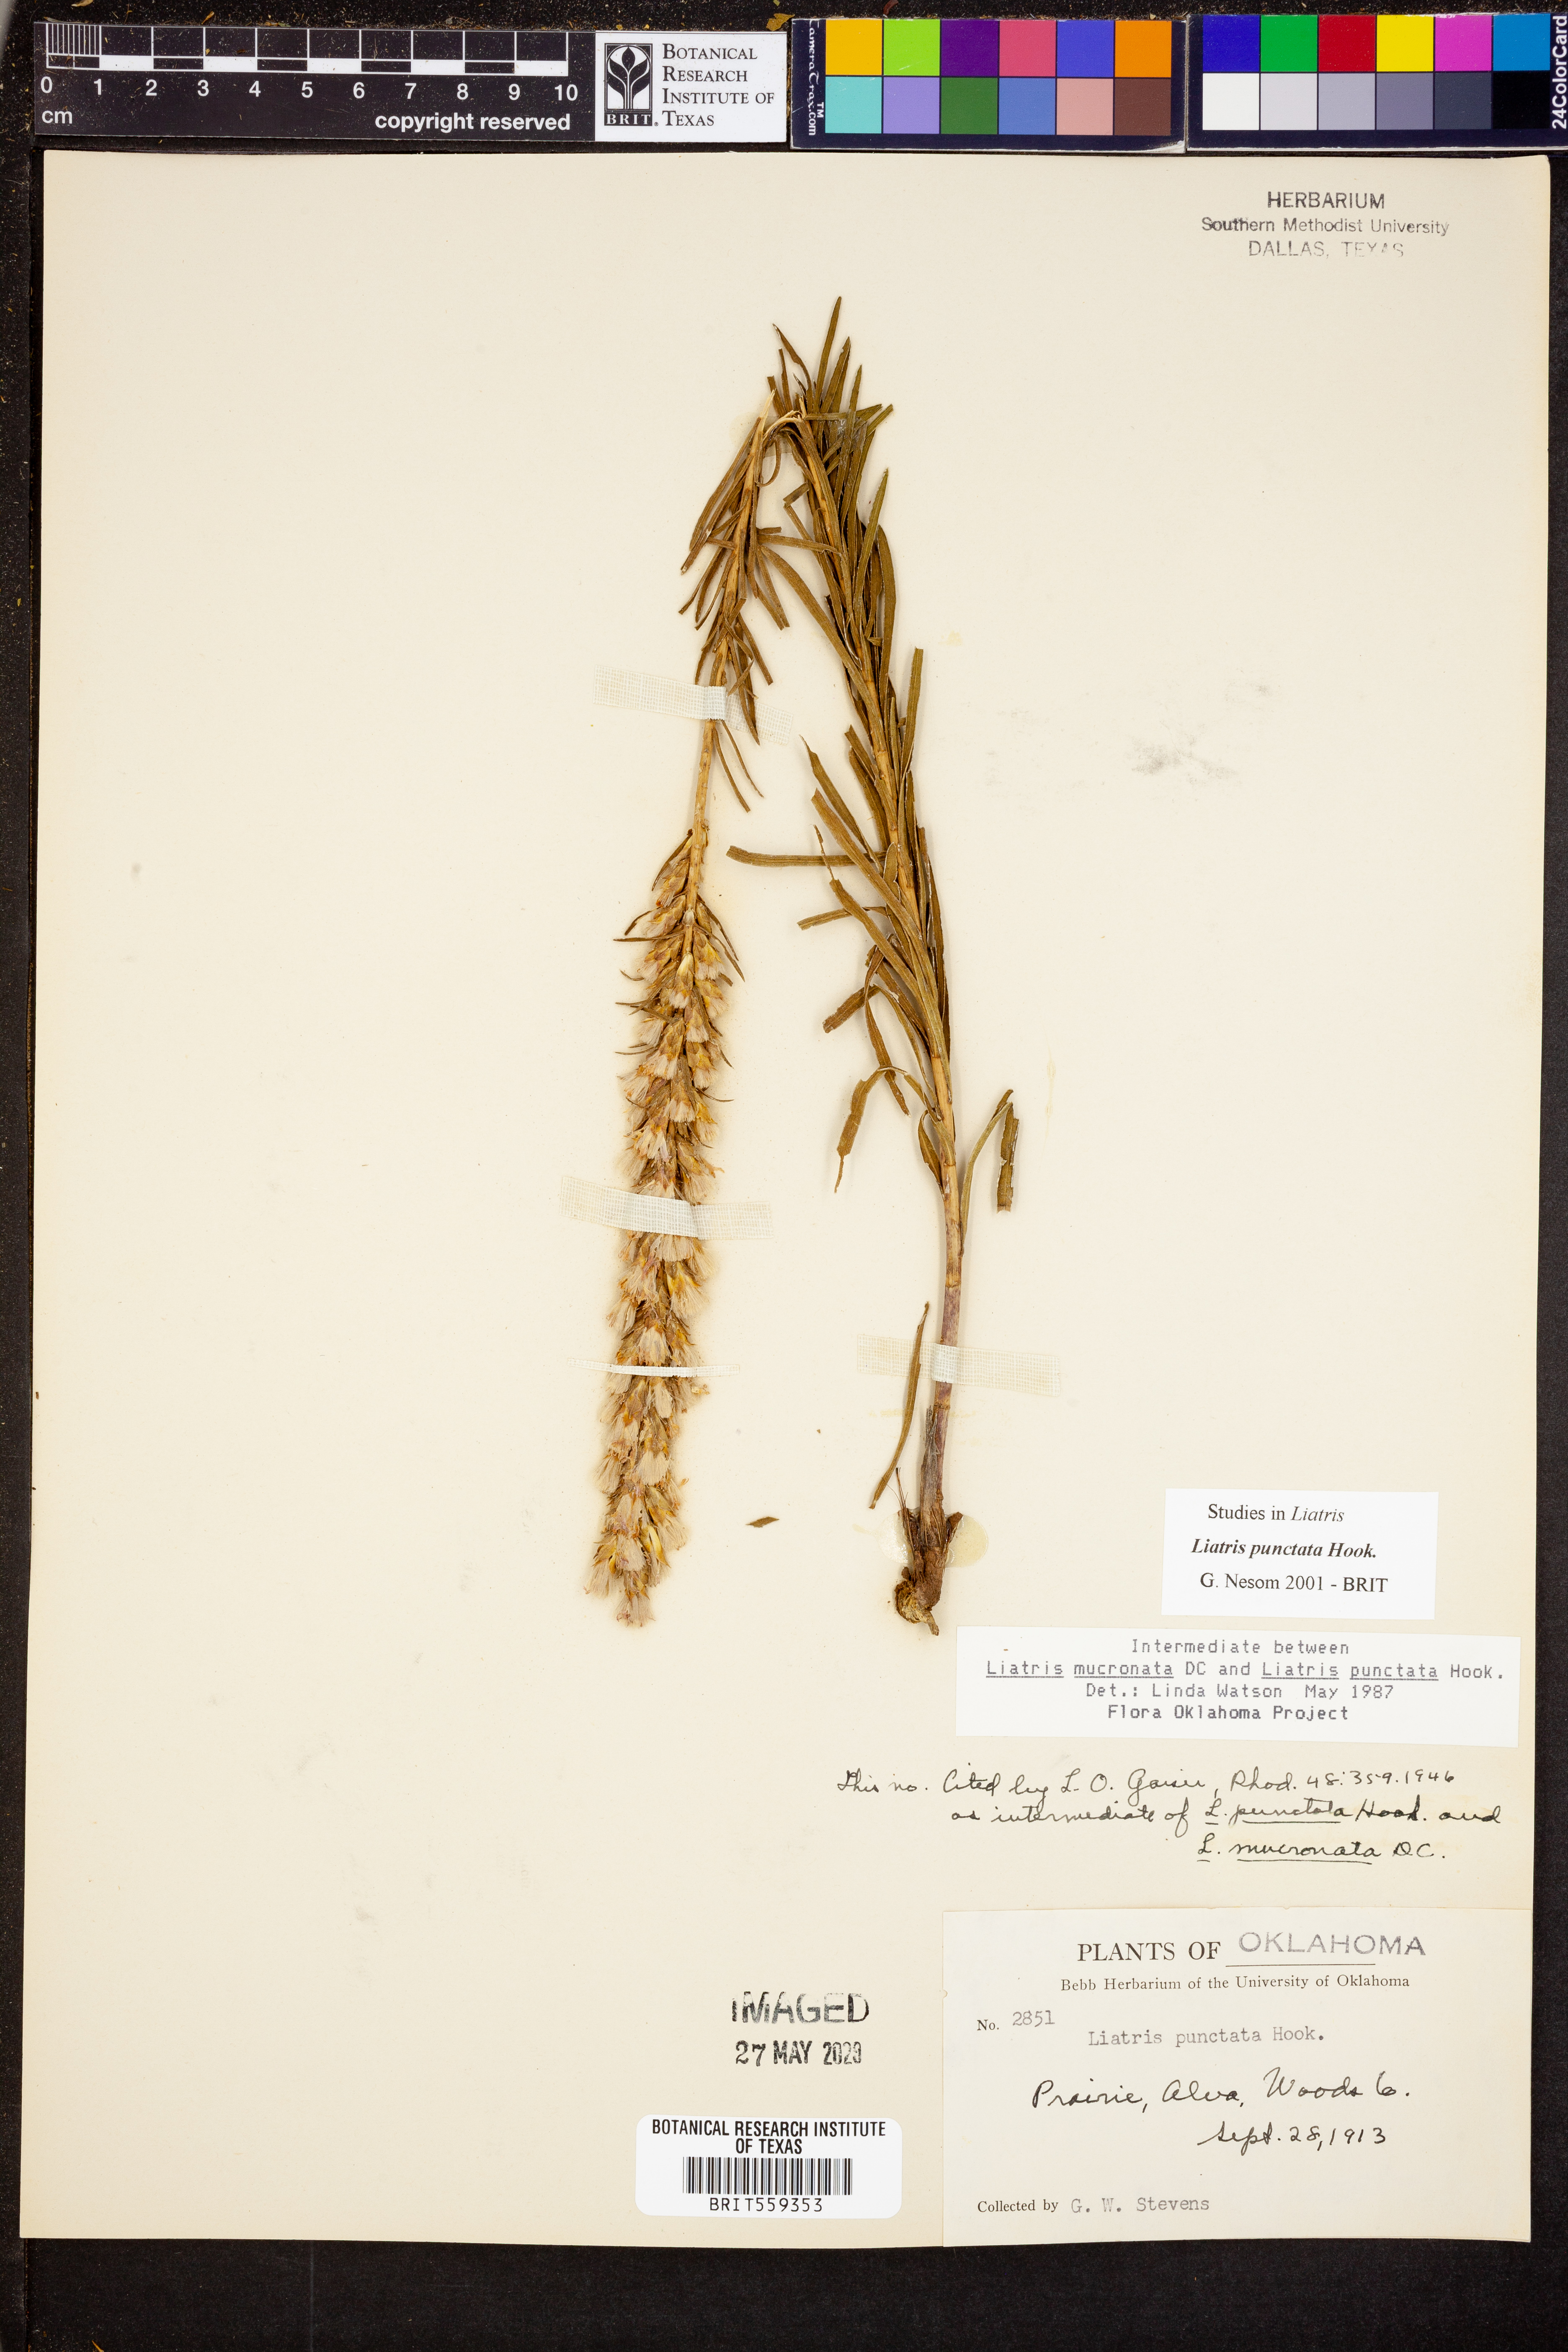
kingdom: Plantae
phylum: Tracheophyta
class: Magnoliopsida
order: Asterales
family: Asteraceae
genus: Liatris
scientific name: Liatris punctata
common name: Dotted gayfeather
